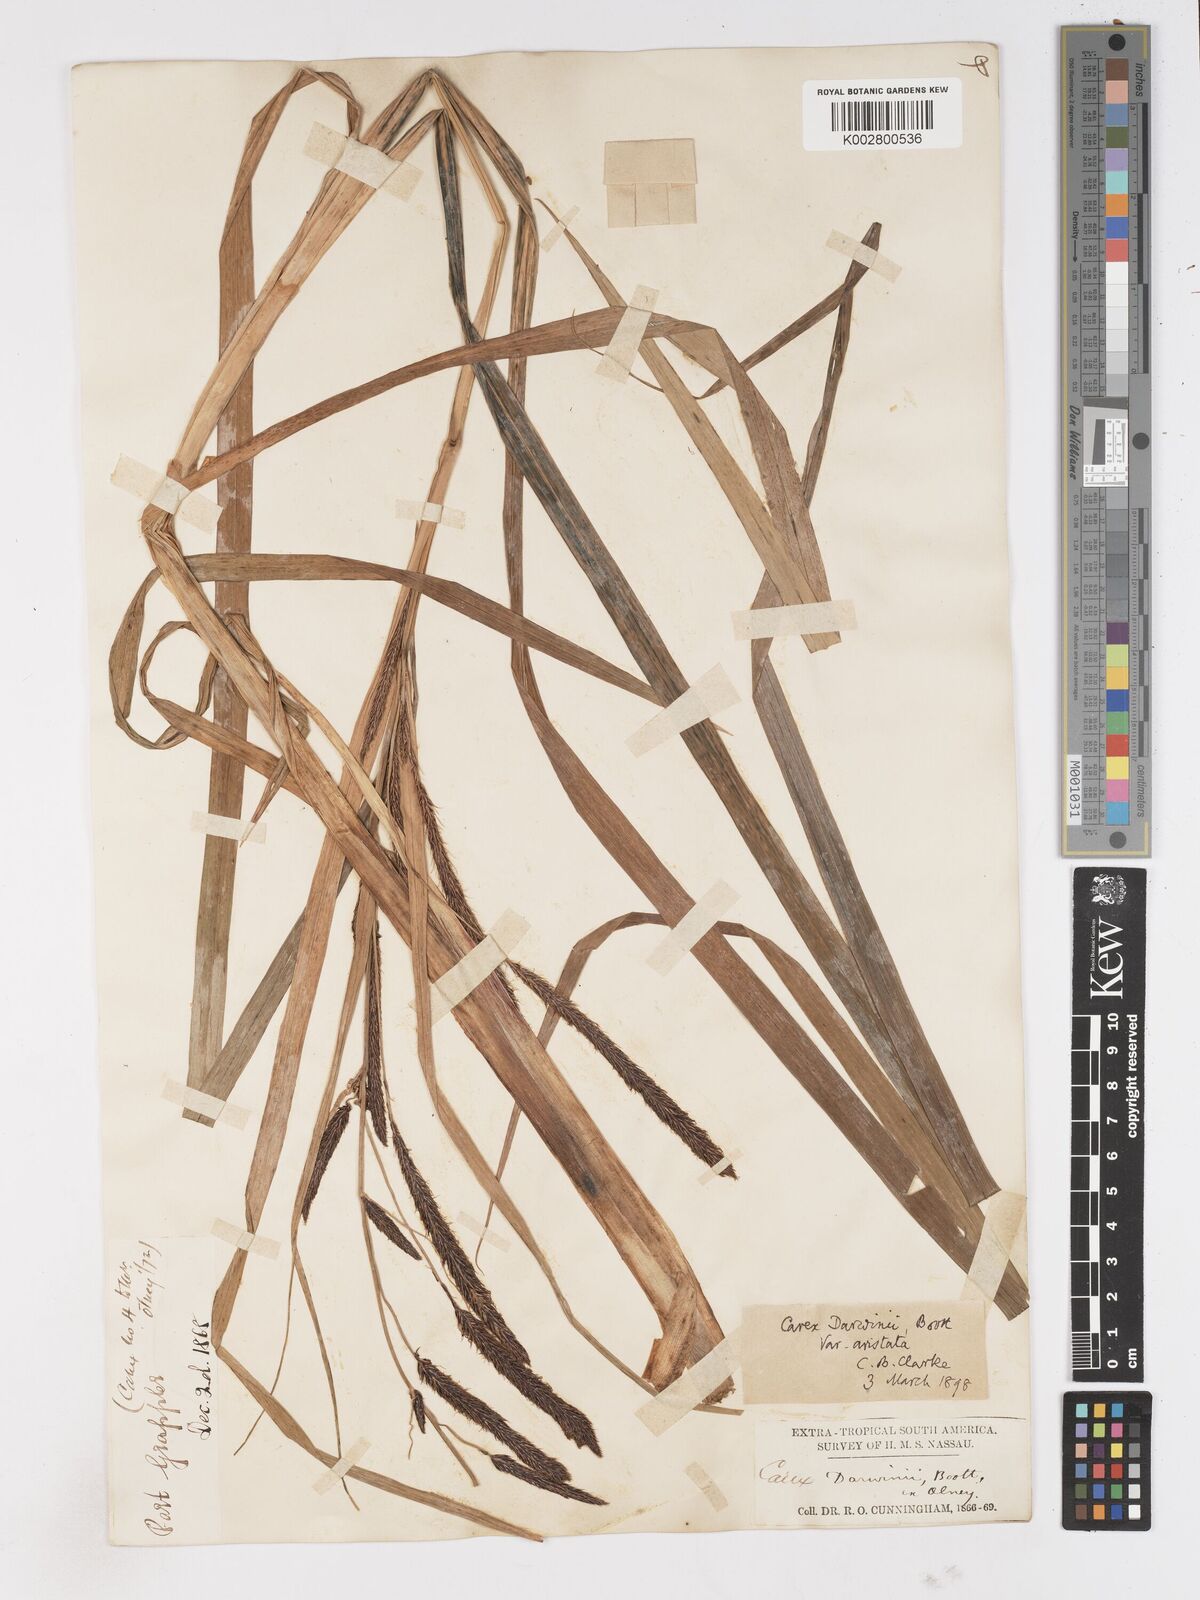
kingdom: Plantae
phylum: Tracheophyta
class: Liliopsida
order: Poales
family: Cyperaceae
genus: Carex
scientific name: Carex darwinii
